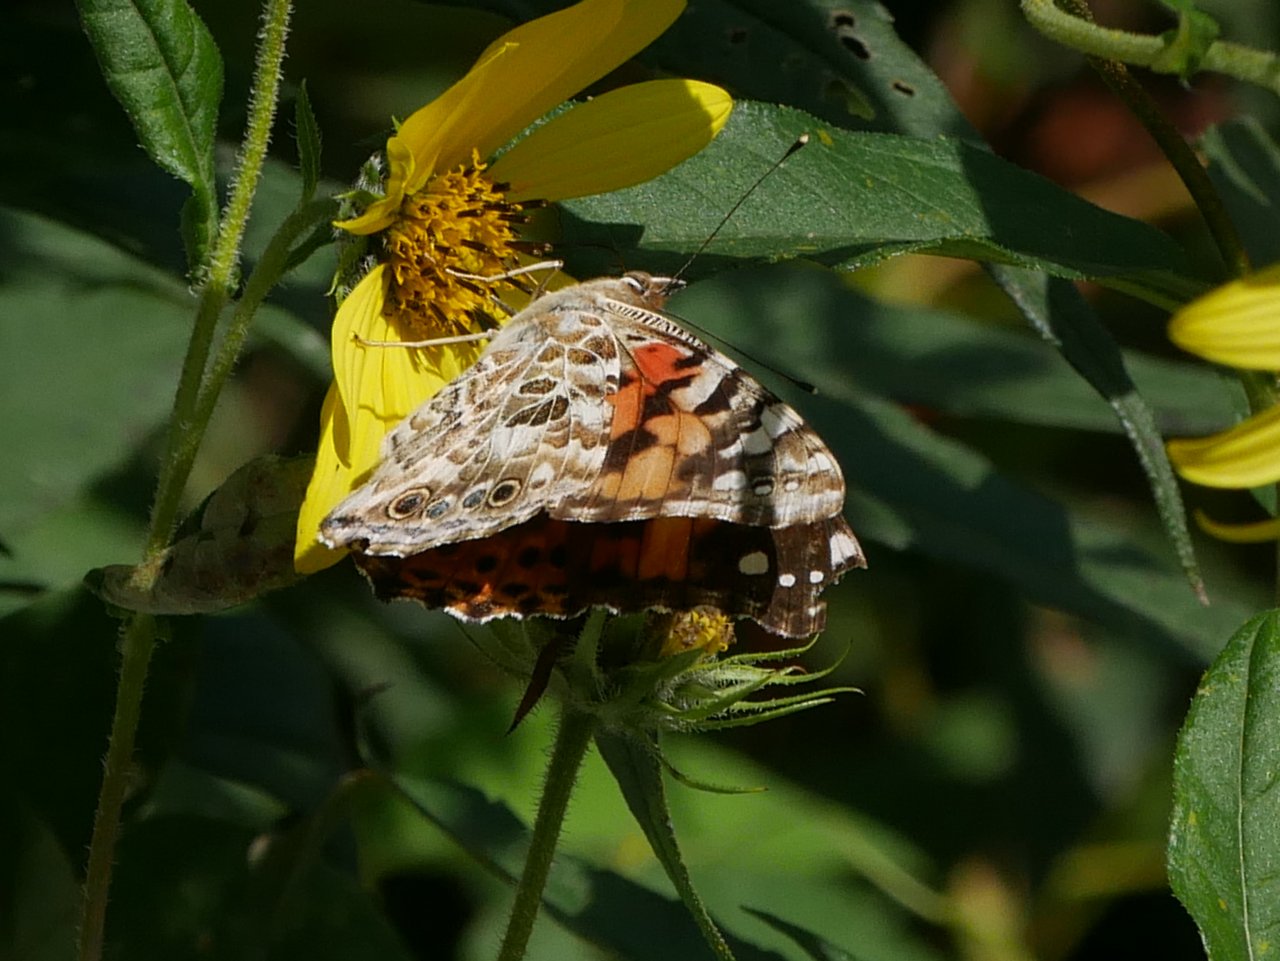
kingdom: Animalia
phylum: Arthropoda
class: Insecta
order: Lepidoptera
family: Nymphalidae
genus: Vanessa
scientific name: Vanessa virginiensis
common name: American Lady
